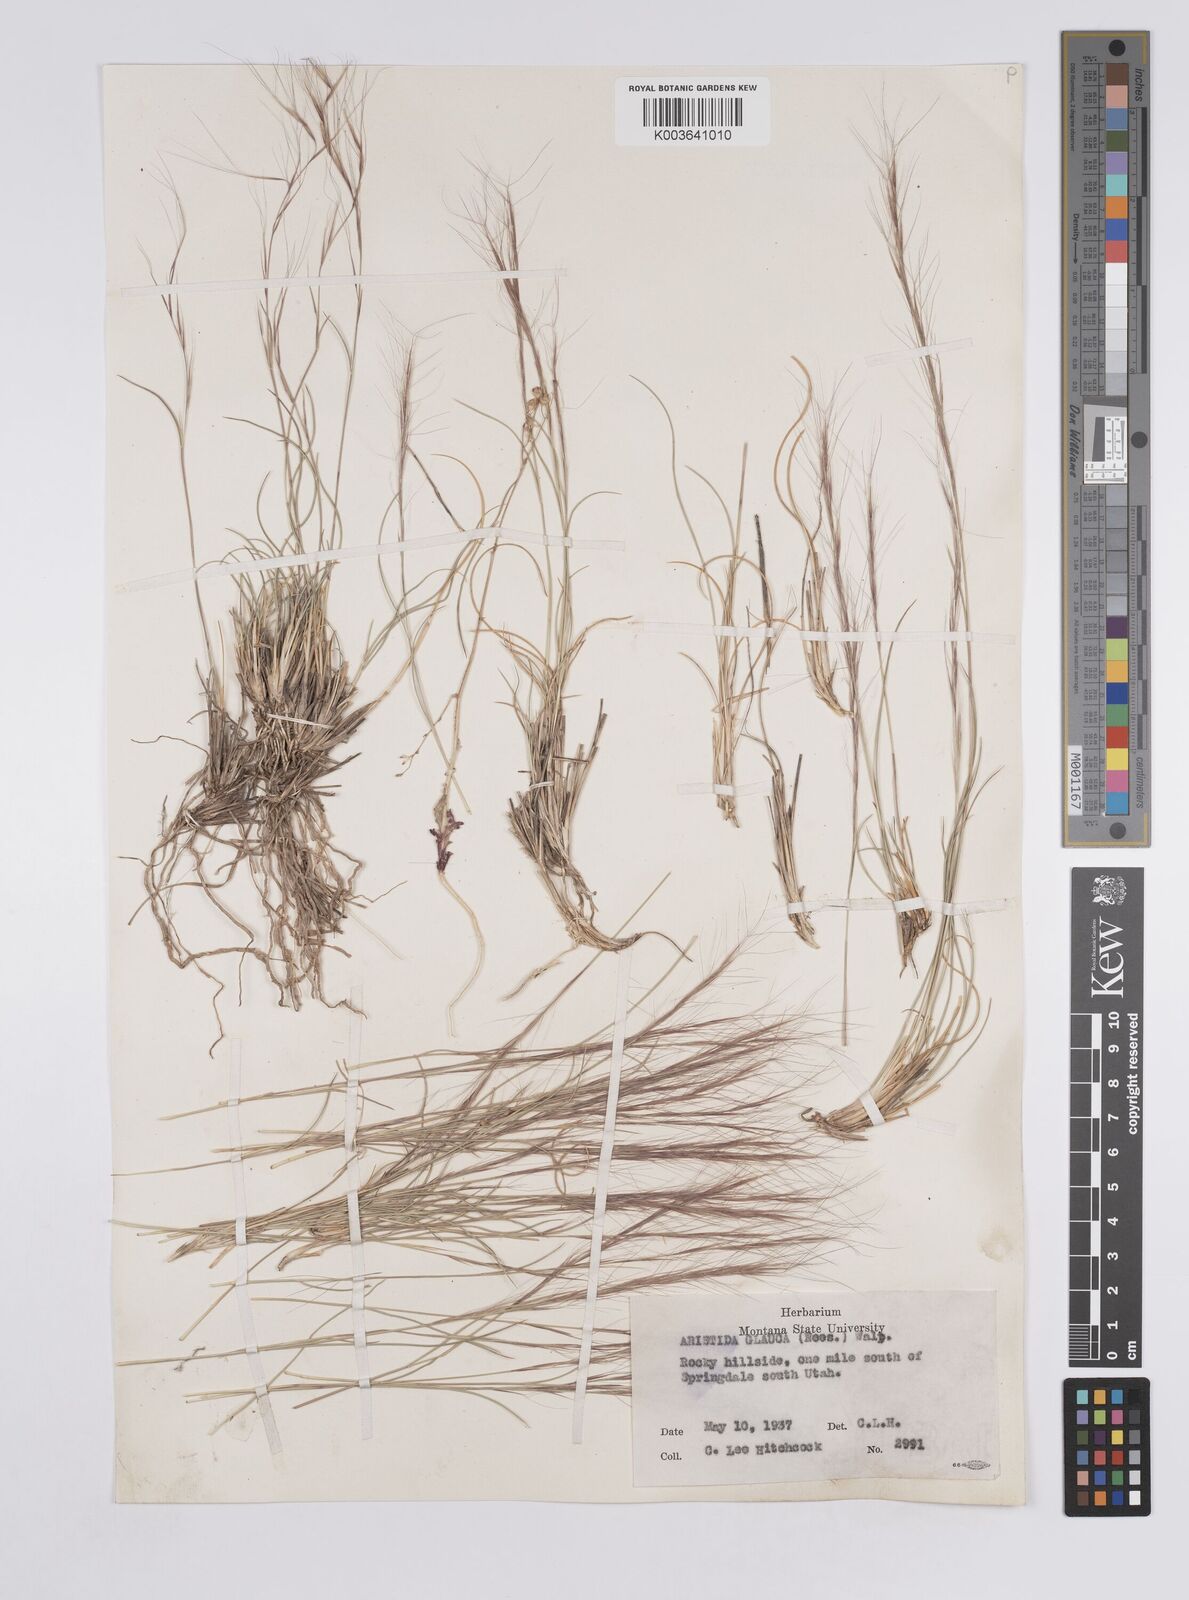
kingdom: Plantae
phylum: Tracheophyta
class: Liliopsida
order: Poales
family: Poaceae
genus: Aristida
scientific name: Aristida purpurea
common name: Purple threeawn
